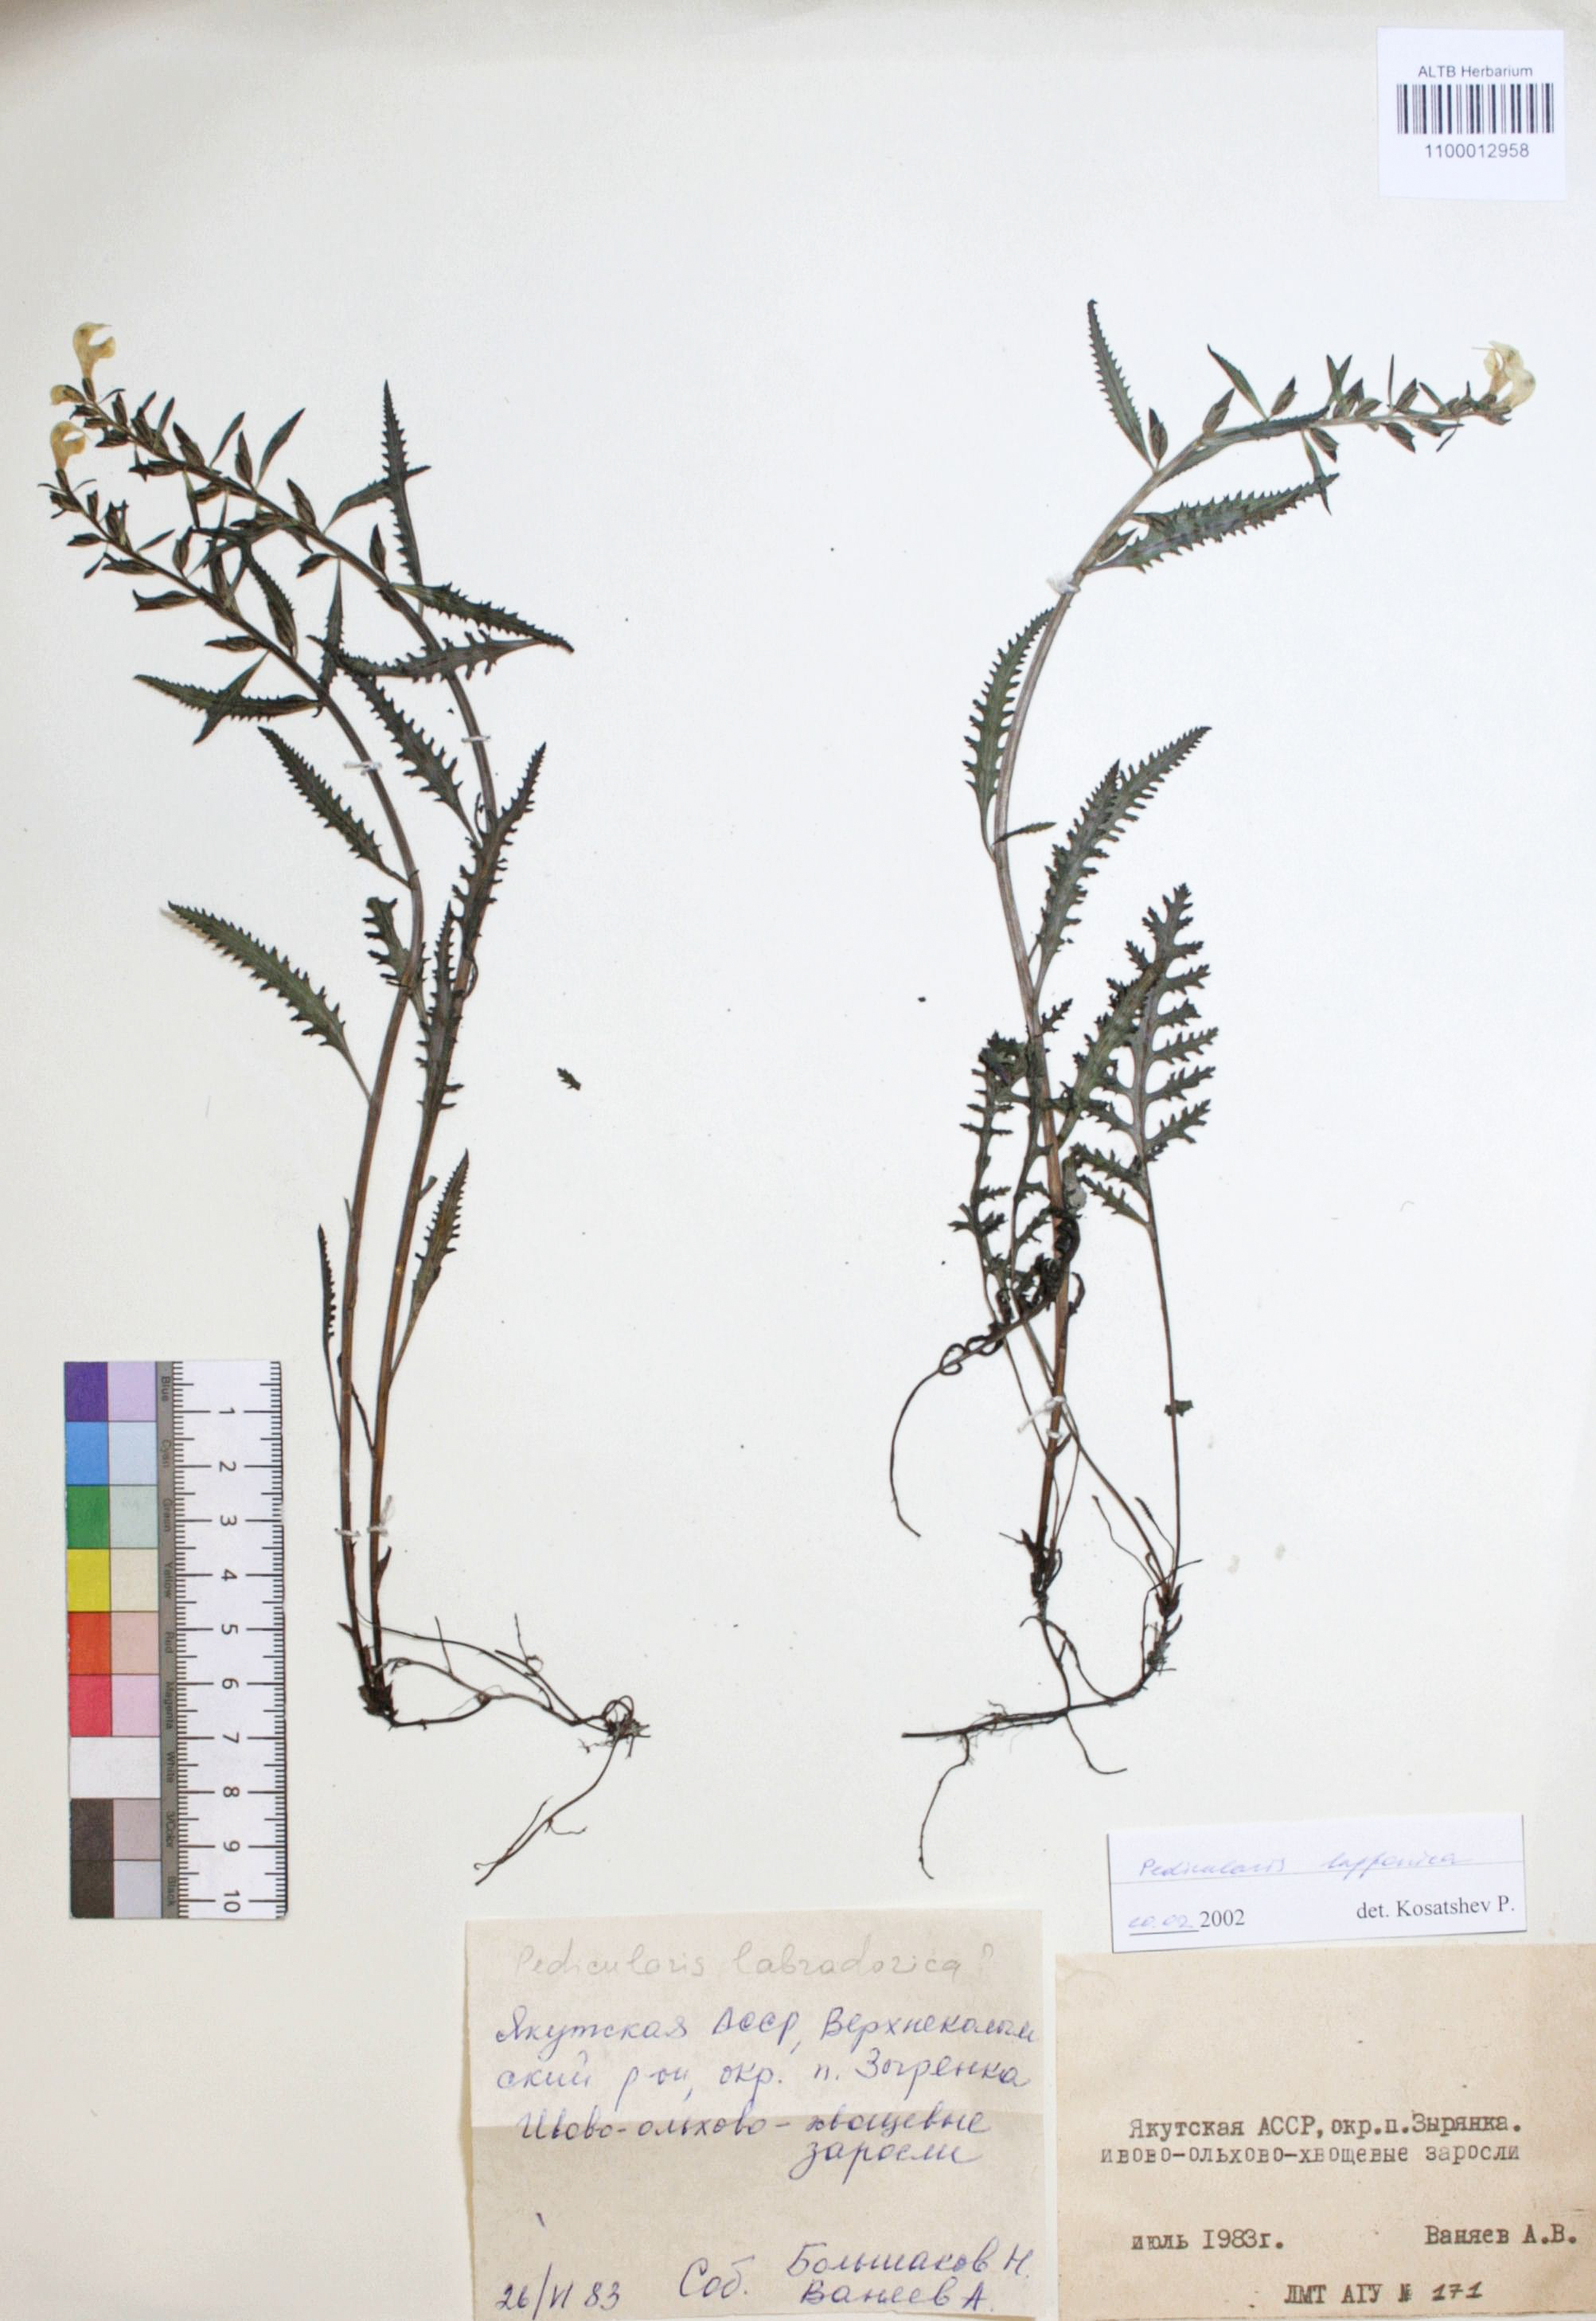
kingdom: Plantae
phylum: Tracheophyta
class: Magnoliopsida
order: Lamiales
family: Orobanchaceae
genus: Pedicularis
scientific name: Pedicularis lapponica
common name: Lapland lousewort
